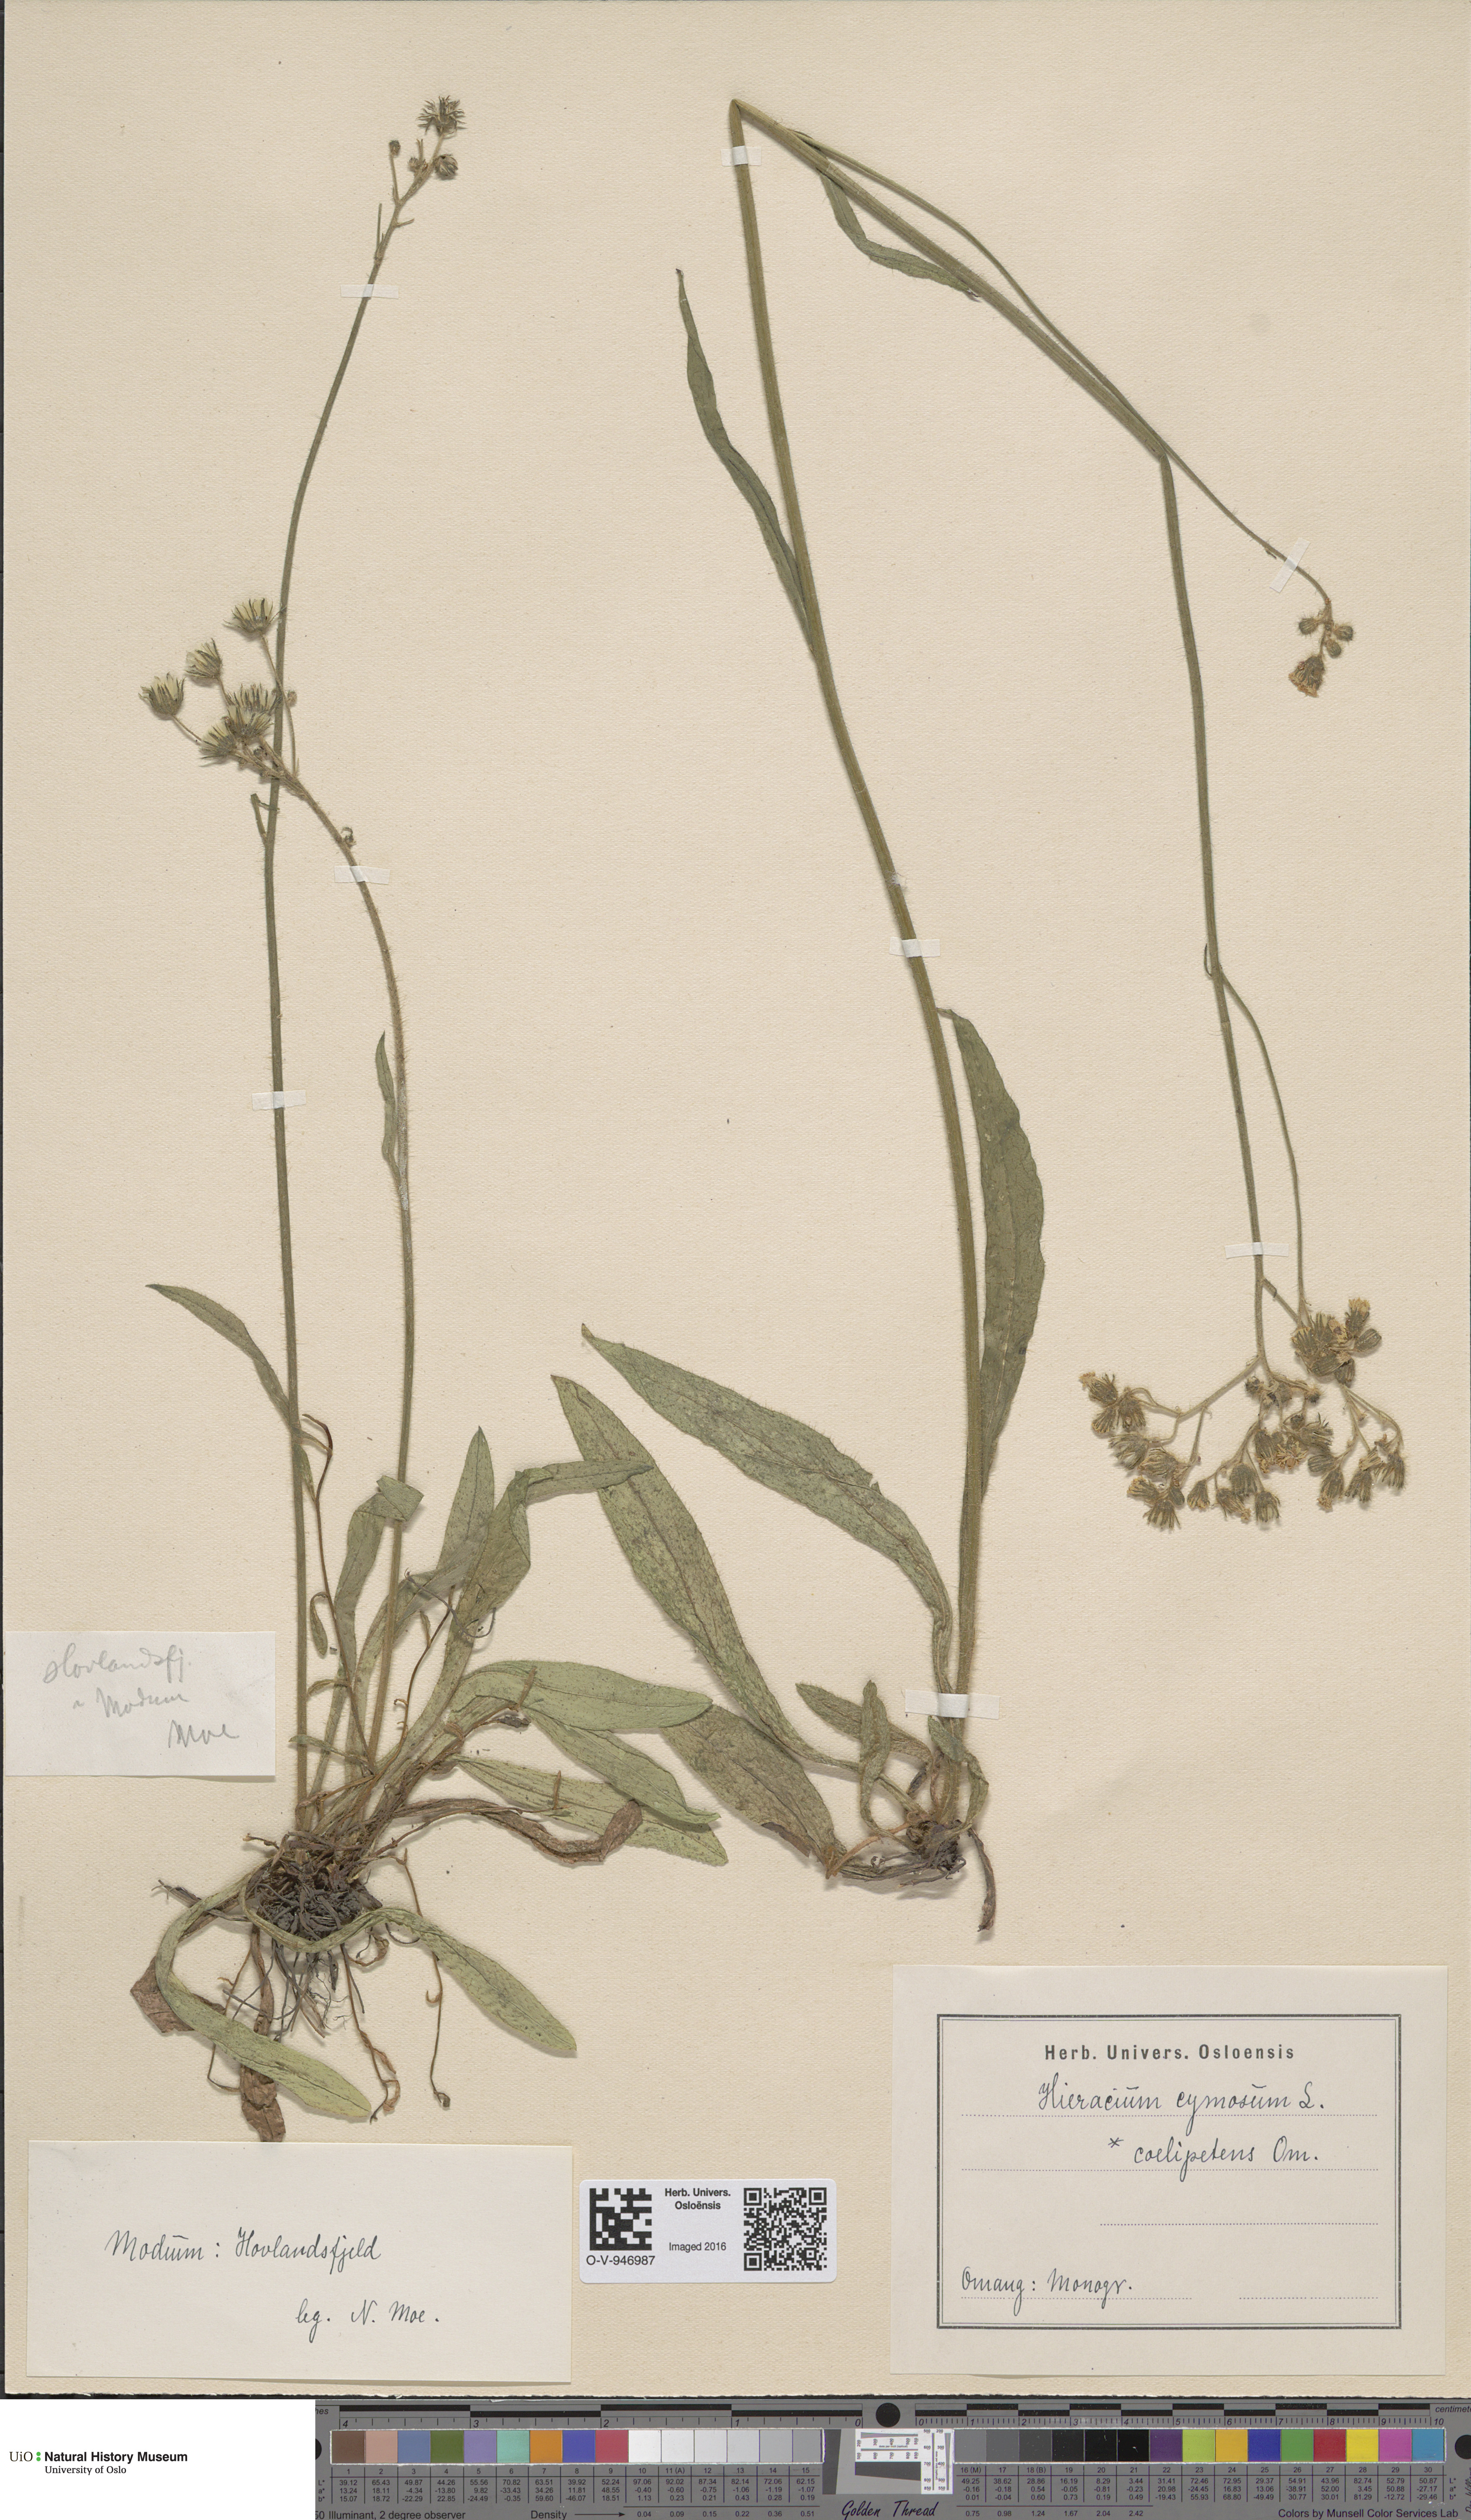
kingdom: Plantae
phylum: Tracheophyta
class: Magnoliopsida
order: Asterales
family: Asteraceae
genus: Pilosella
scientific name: Pilosella cymosa
